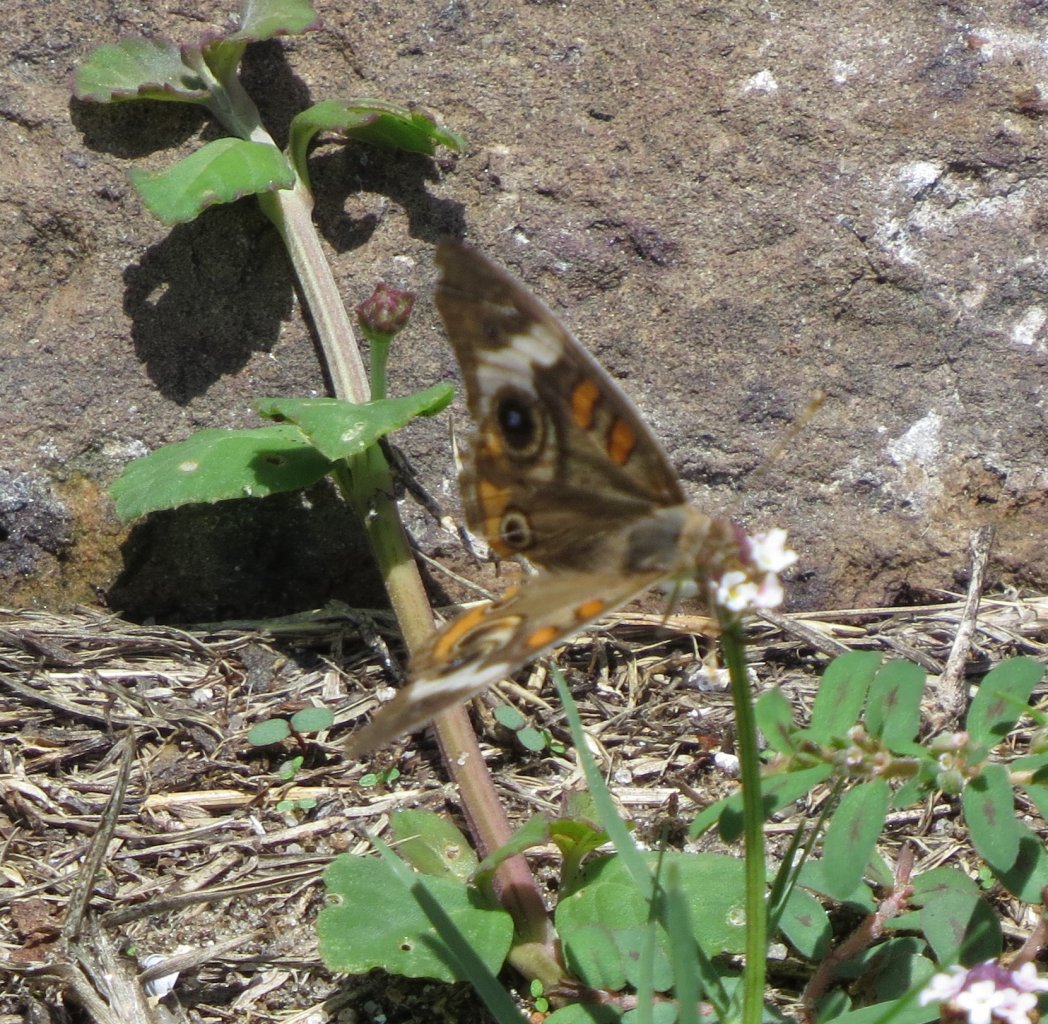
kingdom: Animalia
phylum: Arthropoda
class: Insecta
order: Lepidoptera
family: Nymphalidae
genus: Junonia
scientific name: Junonia coenia
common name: Common Buckeye
